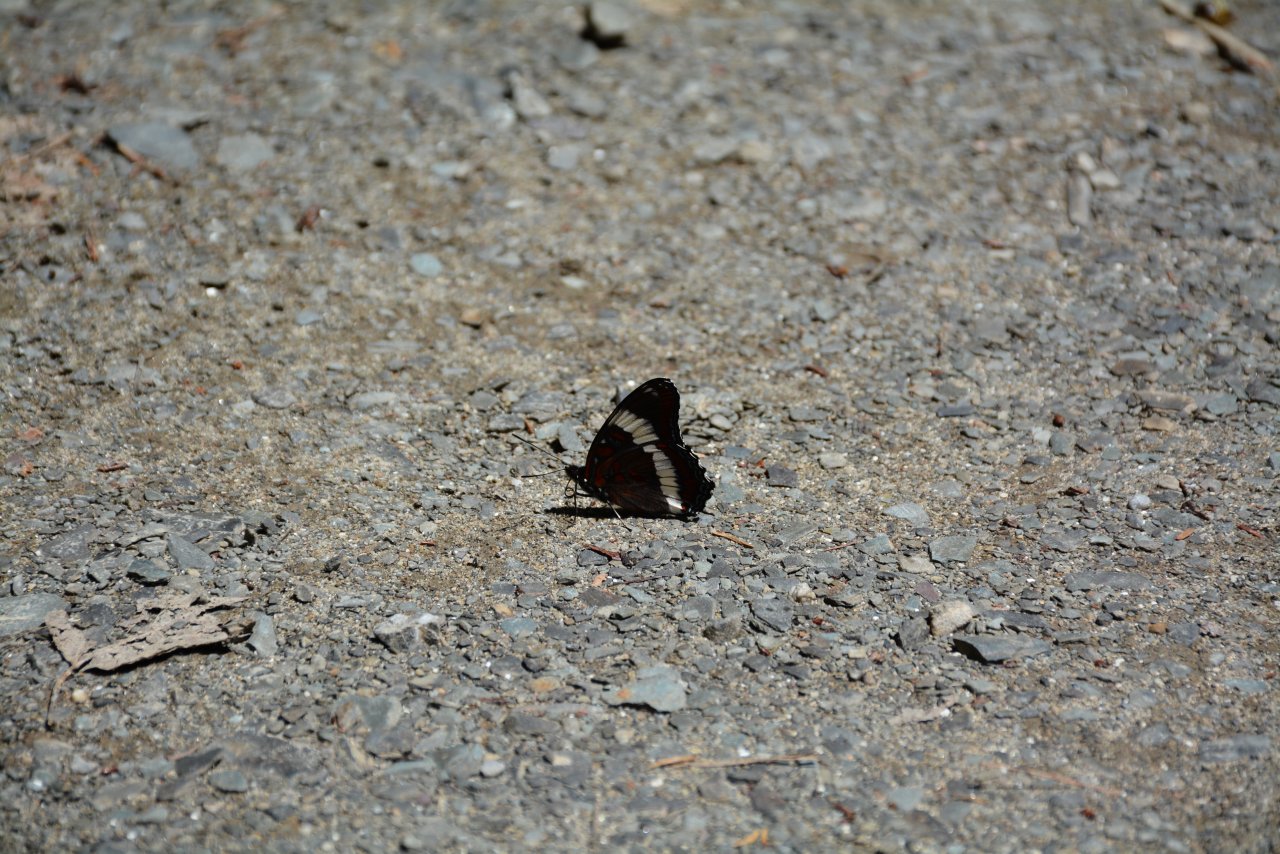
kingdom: Animalia
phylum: Arthropoda
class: Insecta
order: Lepidoptera
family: Nymphalidae
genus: Limenitis
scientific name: Limenitis arthemis
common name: Red-spotted Admiral
